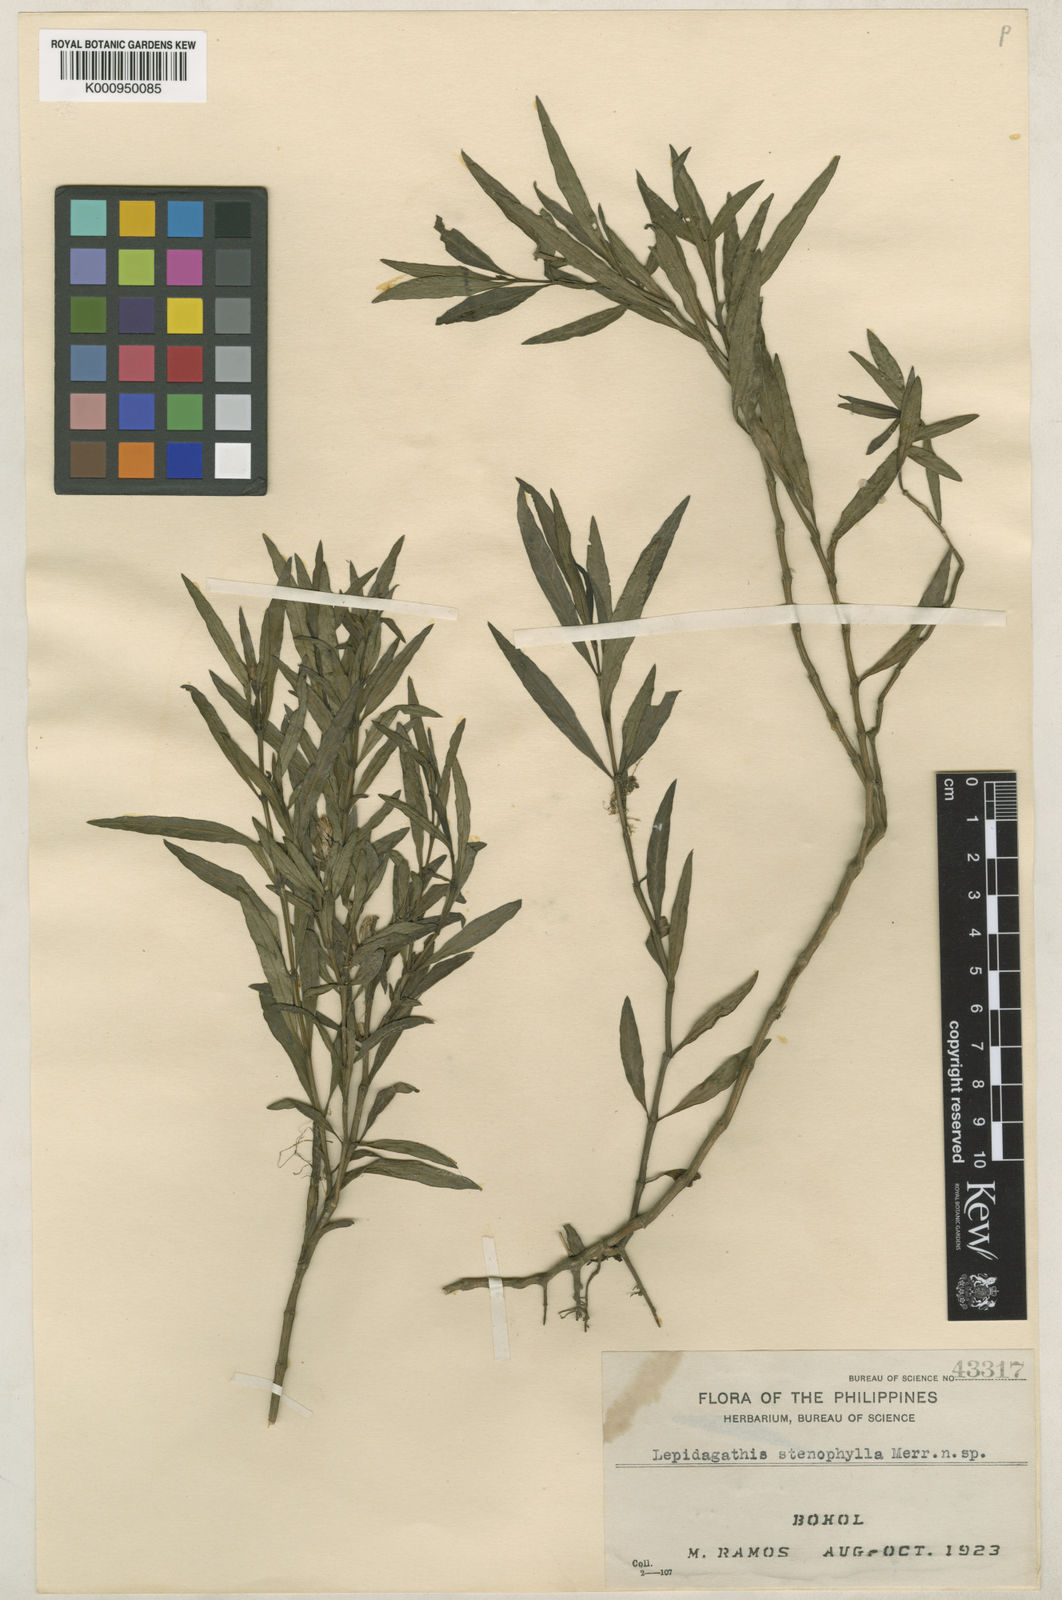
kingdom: Plantae
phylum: Tracheophyta
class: Magnoliopsida
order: Lamiales
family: Acanthaceae
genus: Lepidagathis
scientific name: Lepidagathis boholensis
